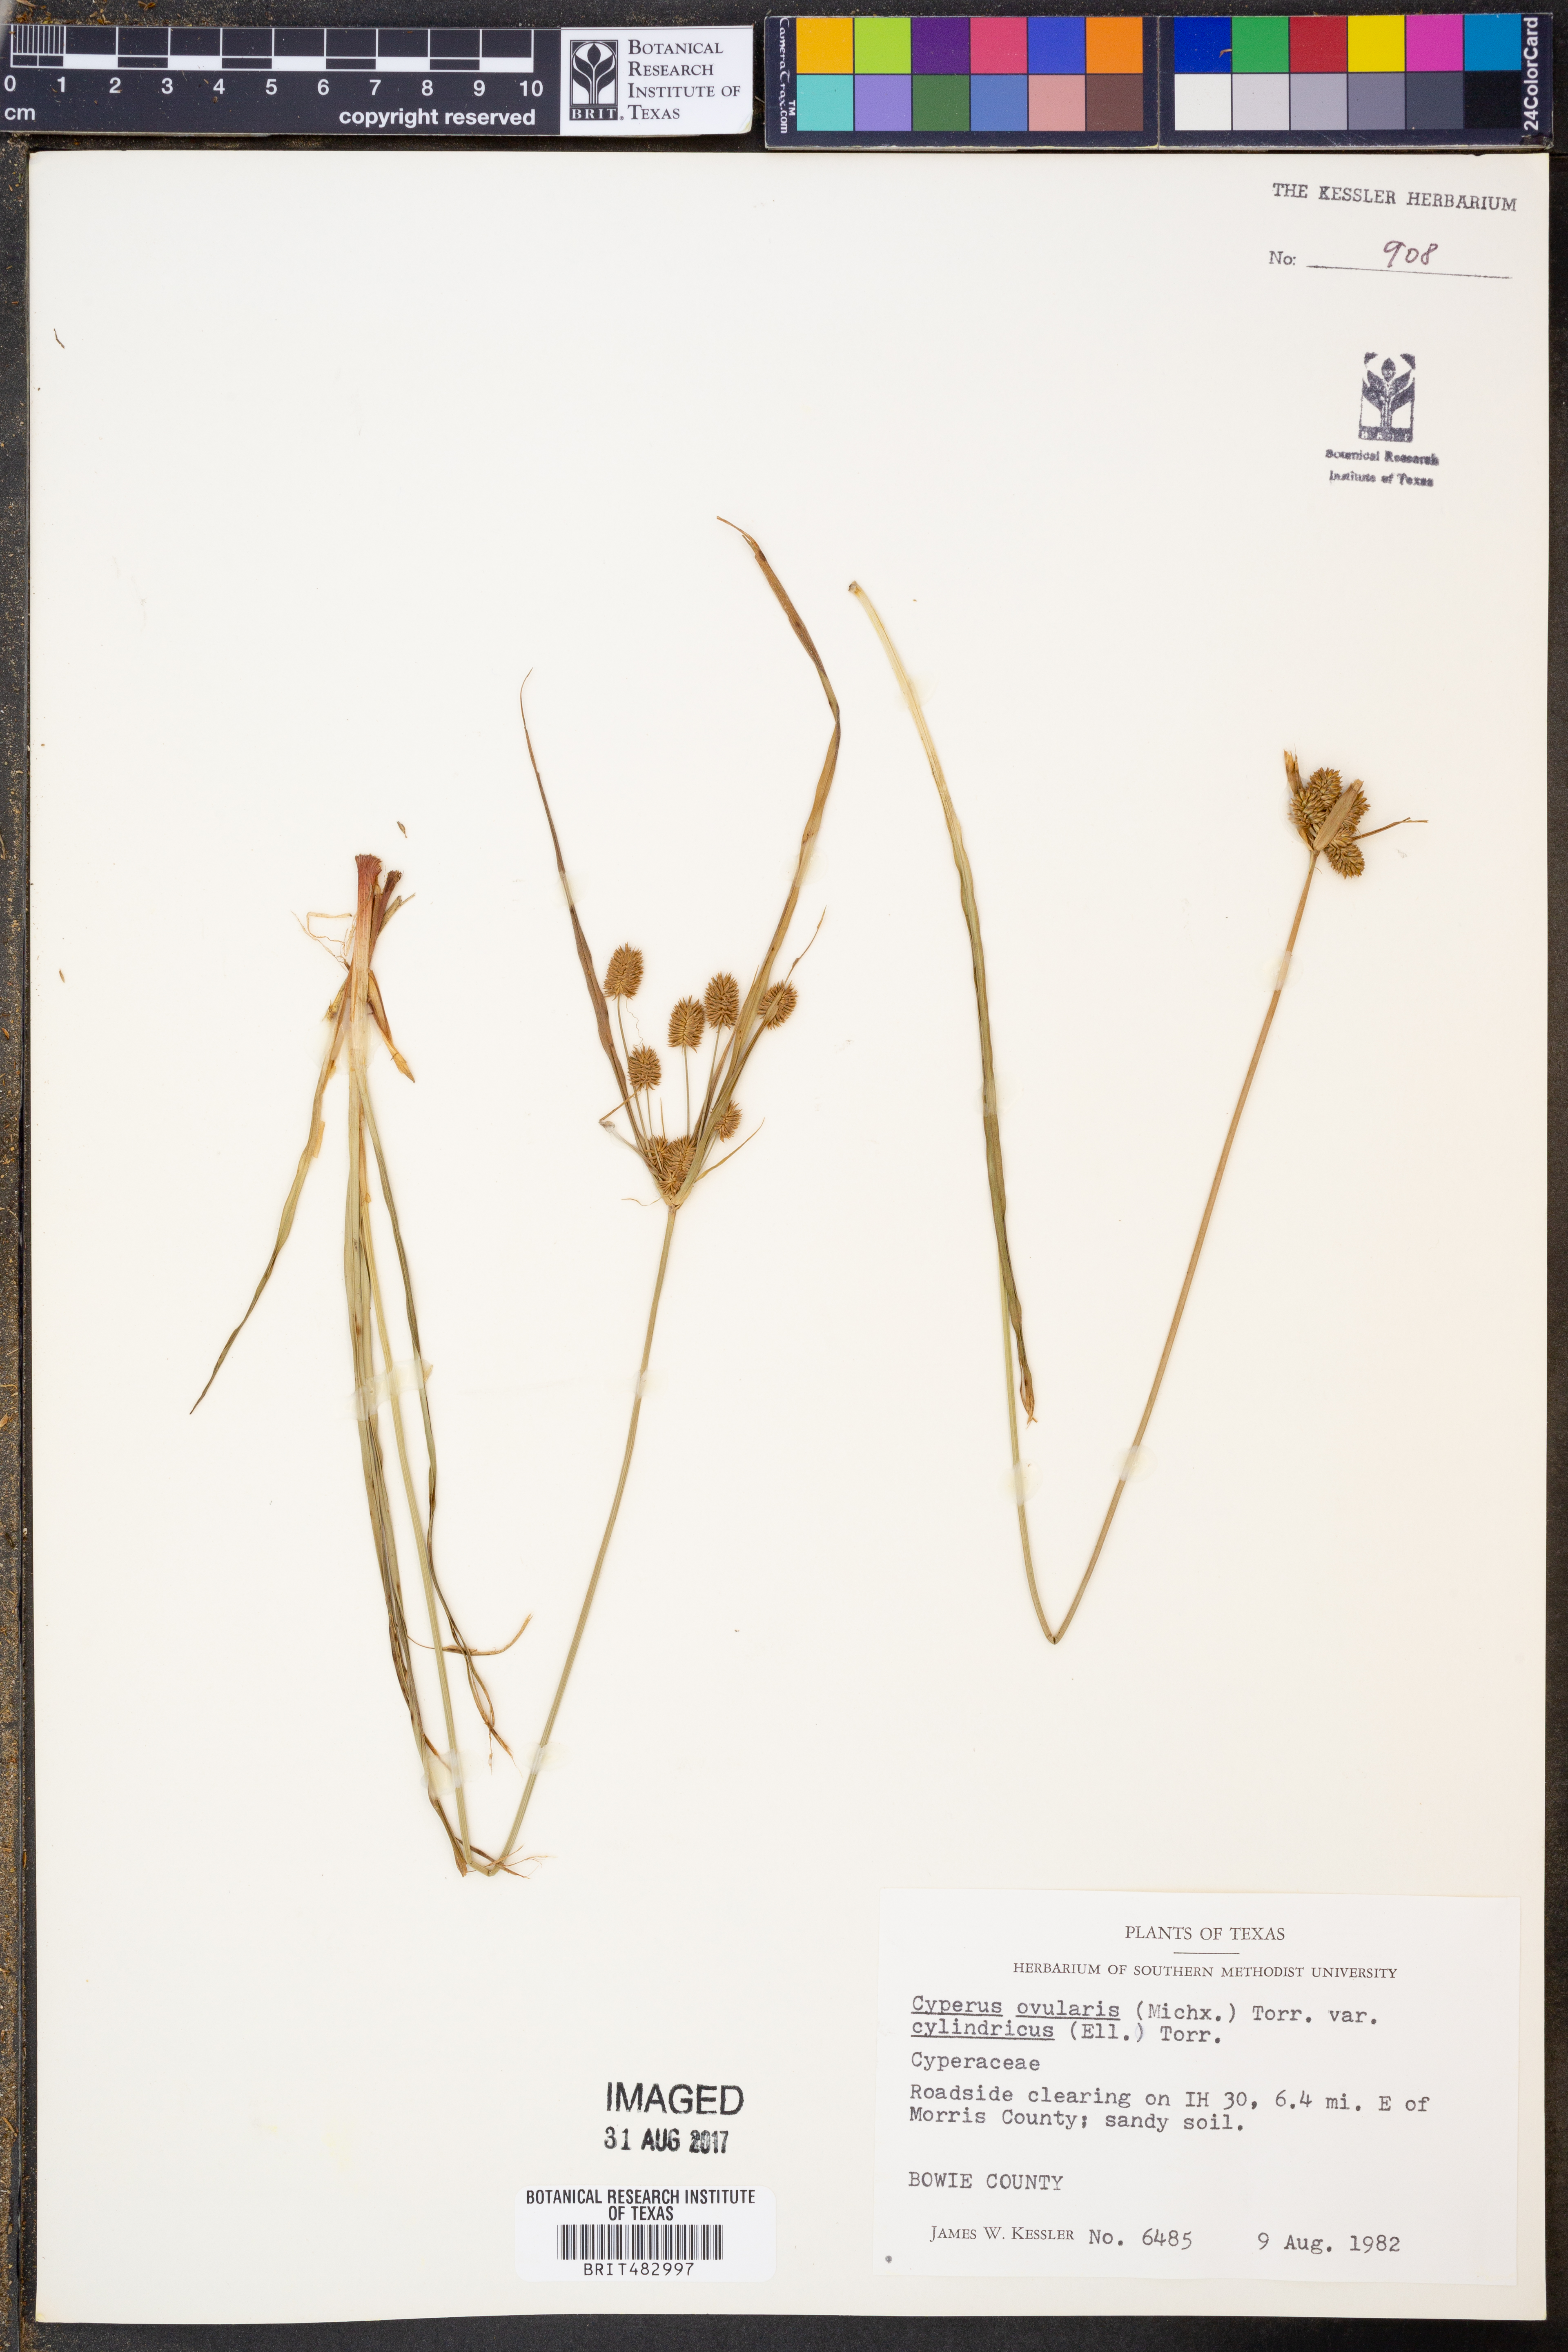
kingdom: Plantae
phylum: Tracheophyta
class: Liliopsida
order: Poales
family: Cyperaceae
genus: Cyperus
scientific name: Cyperus retrorsus
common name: Pinebarren flat sedge
